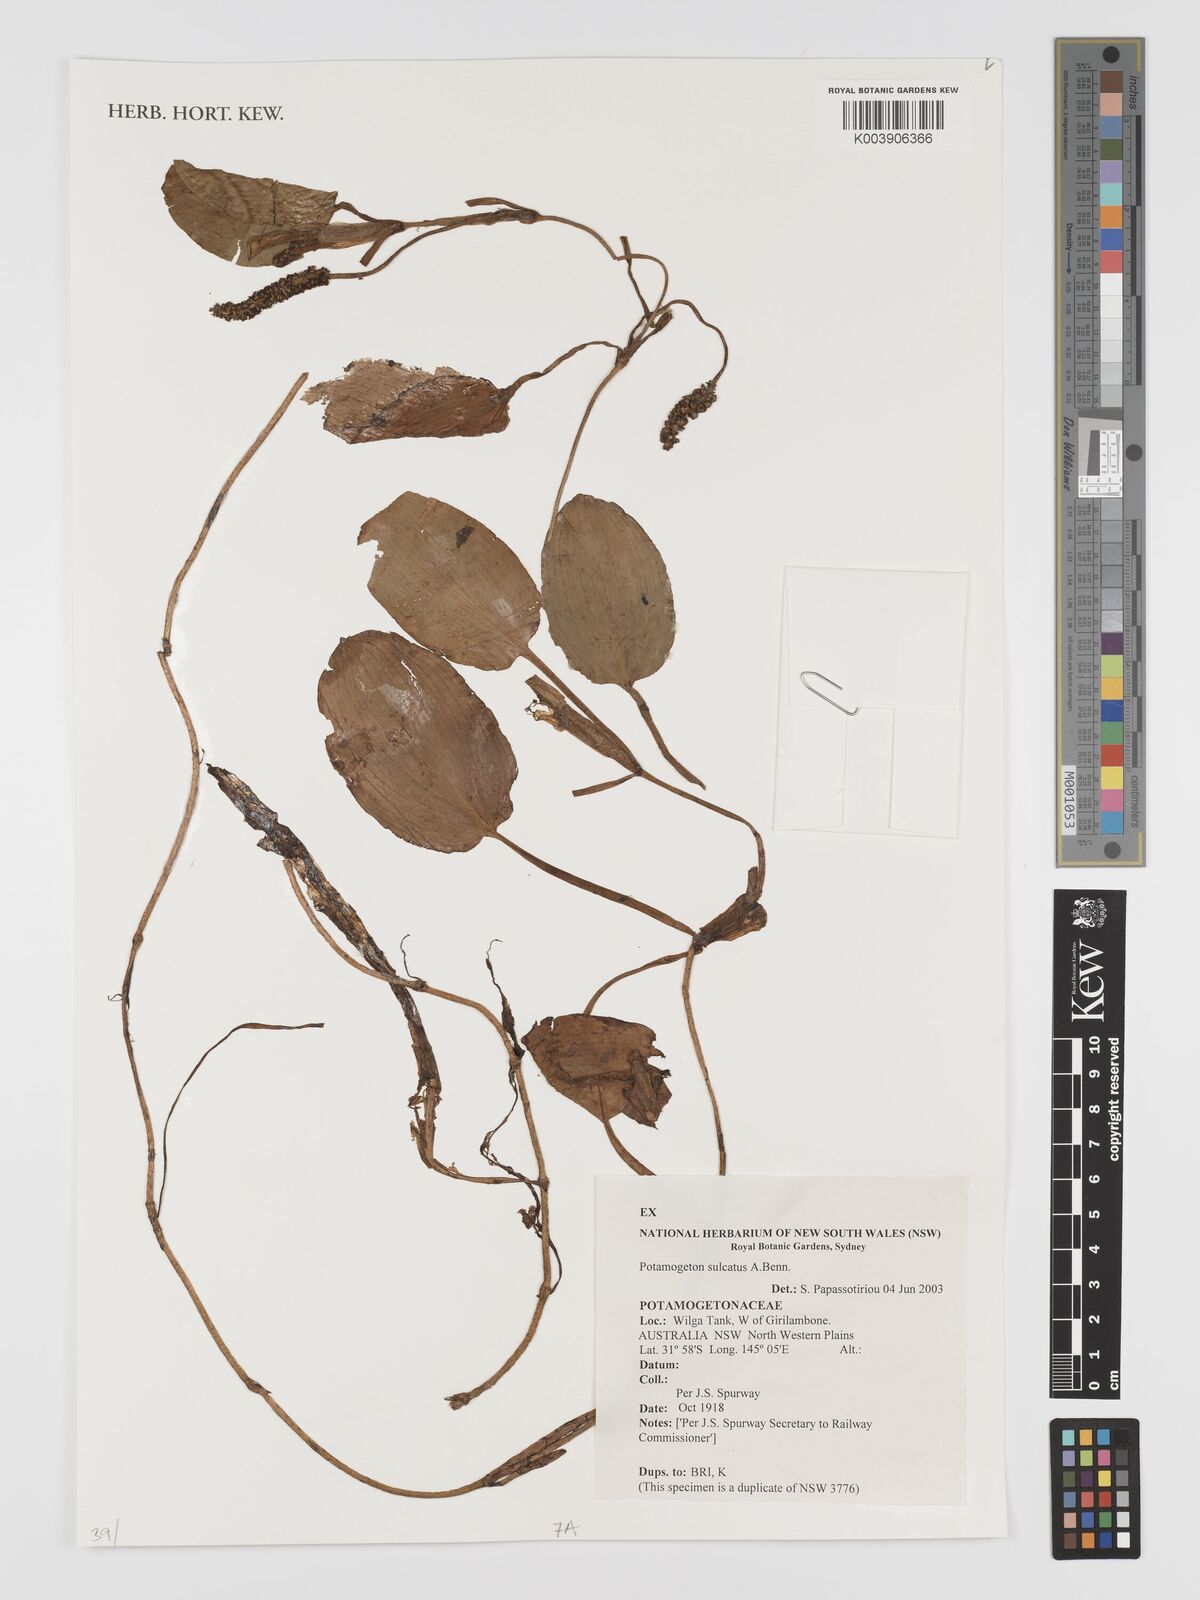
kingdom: Plantae
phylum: Tracheophyta
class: Liliopsida
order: Alismatales
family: Potamogetonaceae
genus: Potamogeton
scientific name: Potamogeton sulcatus
